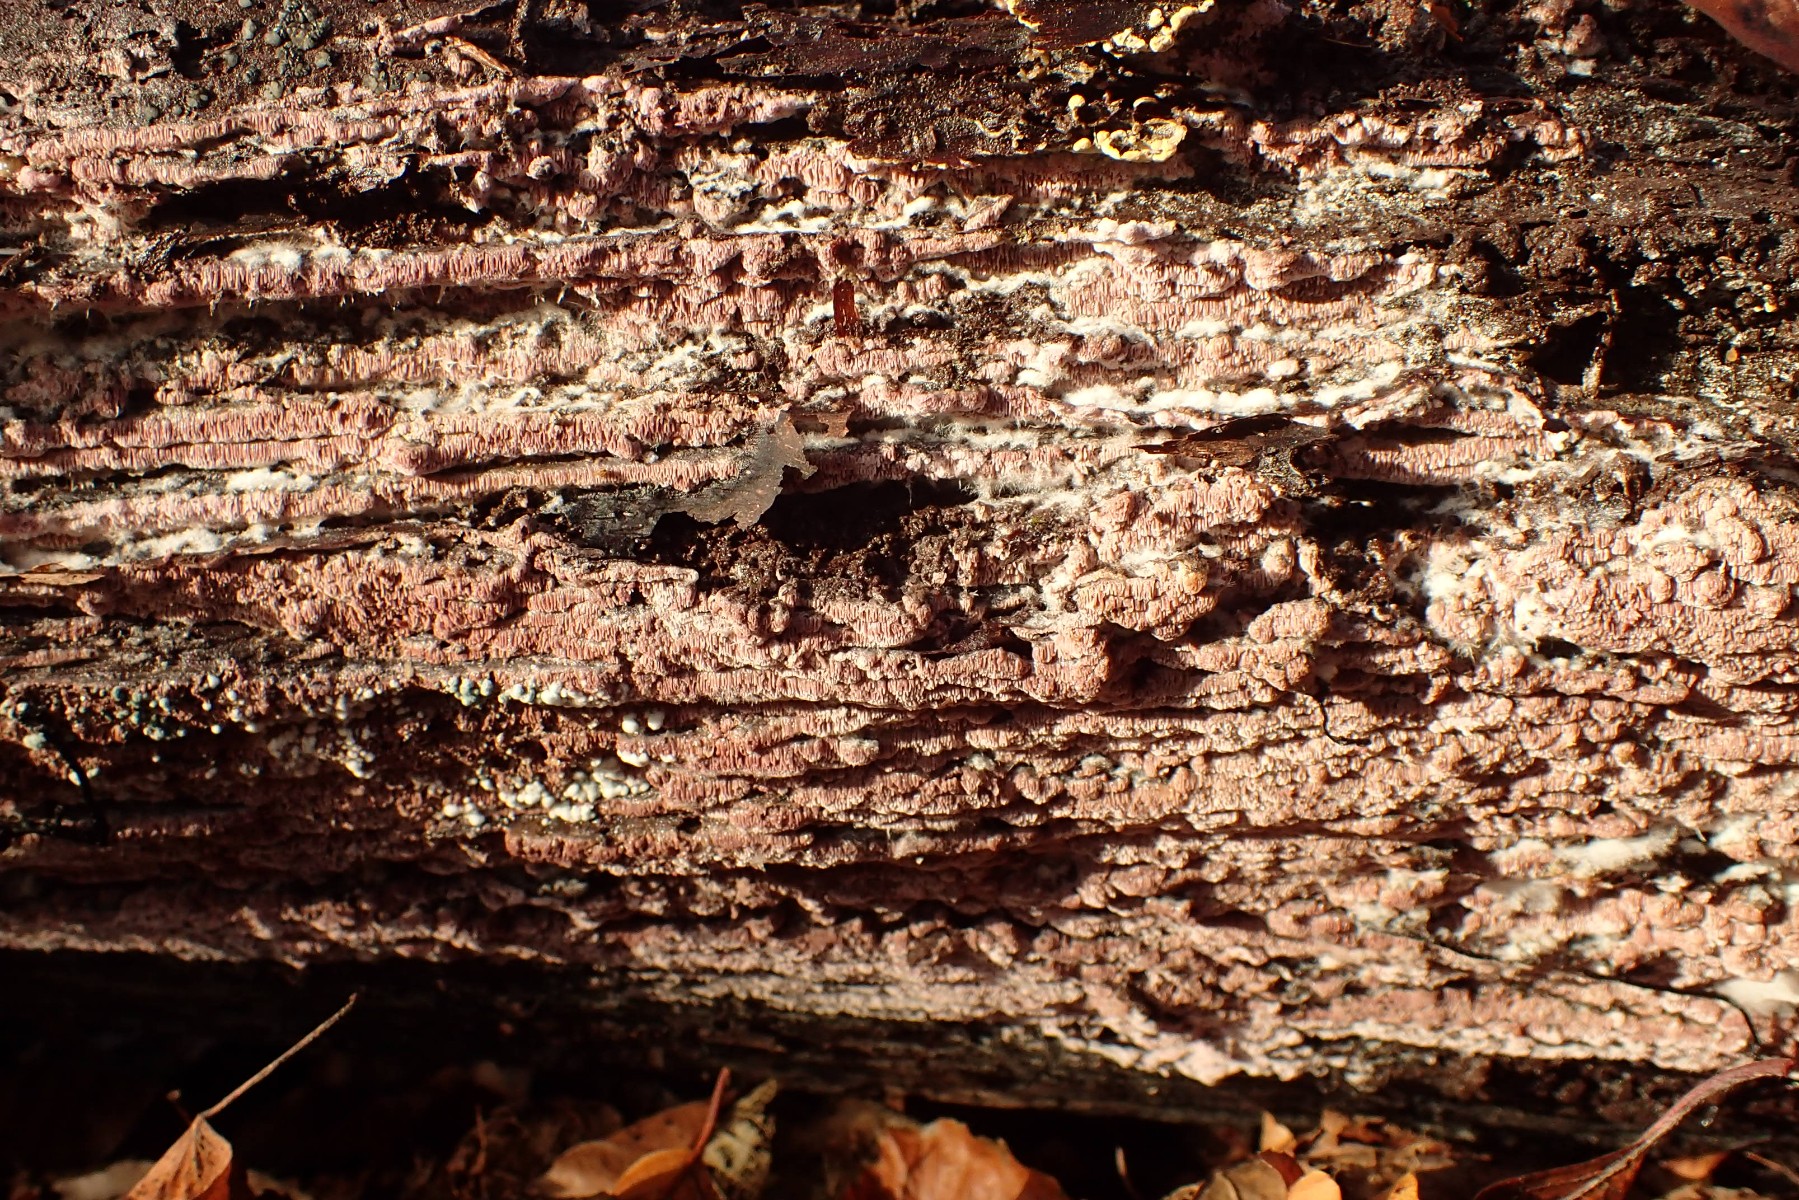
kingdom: Fungi
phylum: Basidiomycota
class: Agaricomycetes
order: Polyporales
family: Irpicaceae
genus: Ceriporia
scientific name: Ceriporia excelsa
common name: lilla voksporesvamp
